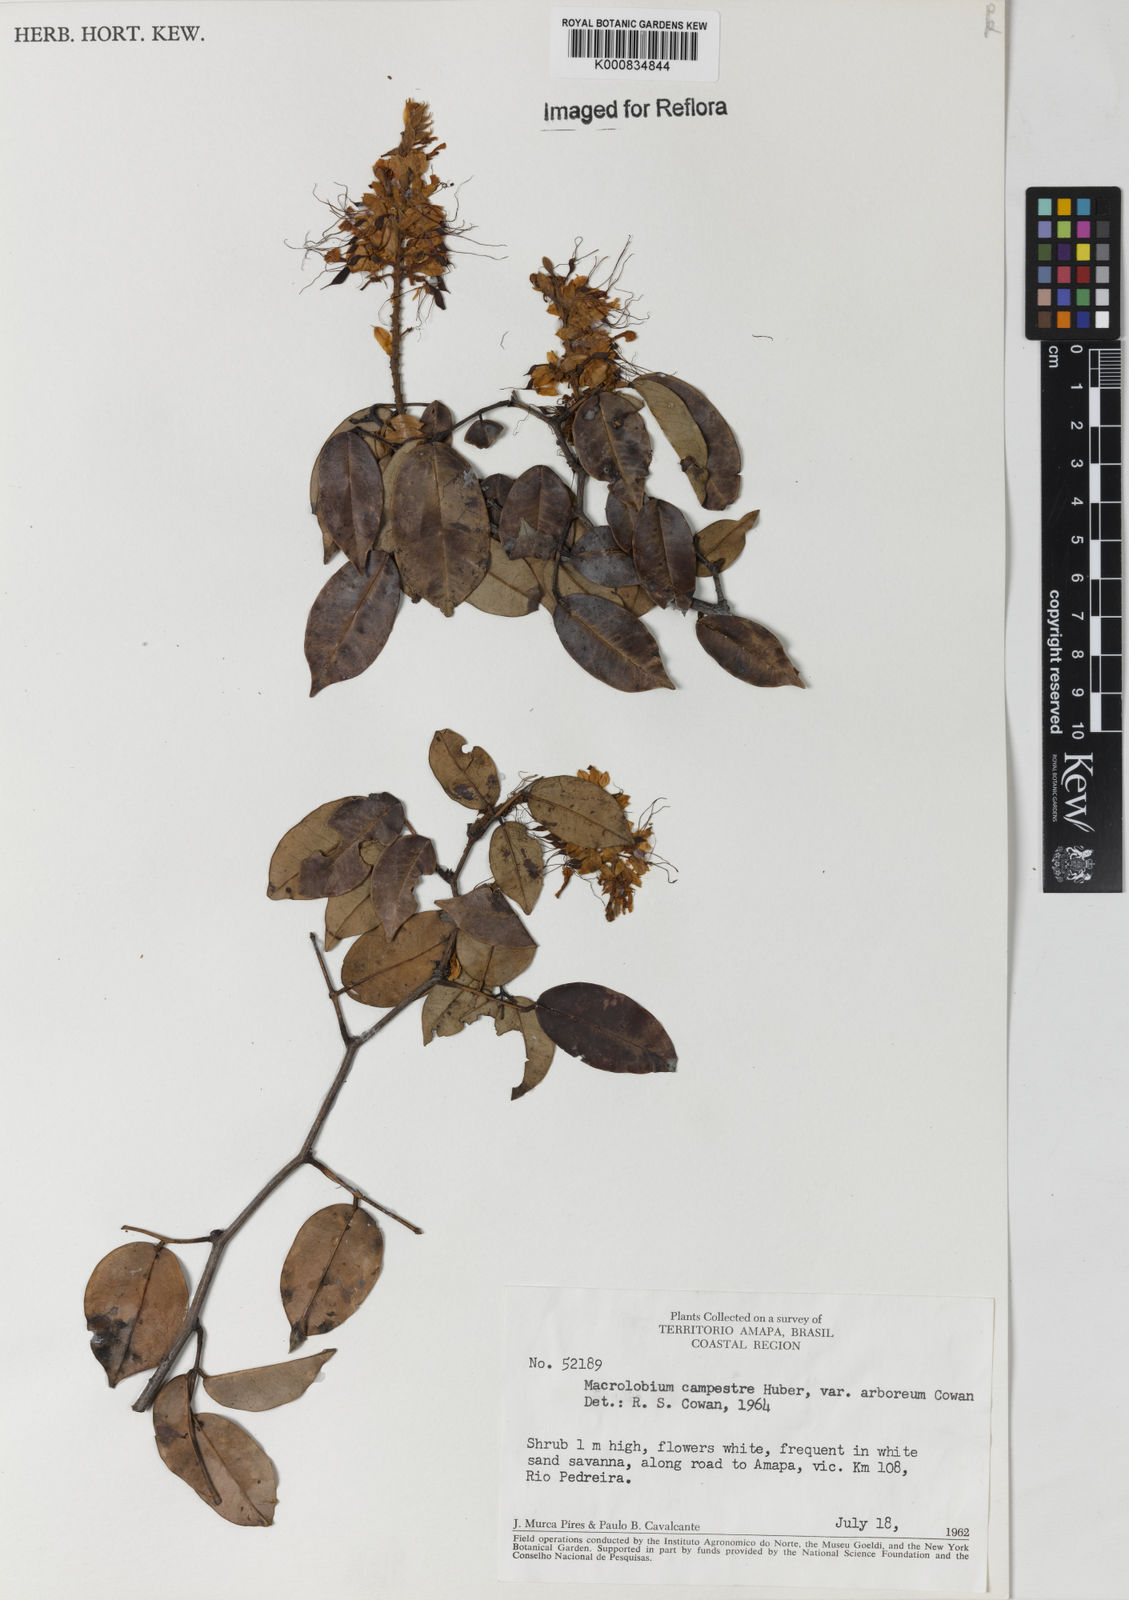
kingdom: Plantae
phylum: Tracheophyta
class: Magnoliopsida
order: Fabales
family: Fabaceae
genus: Macrolobium
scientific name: Macrolobium campestre
